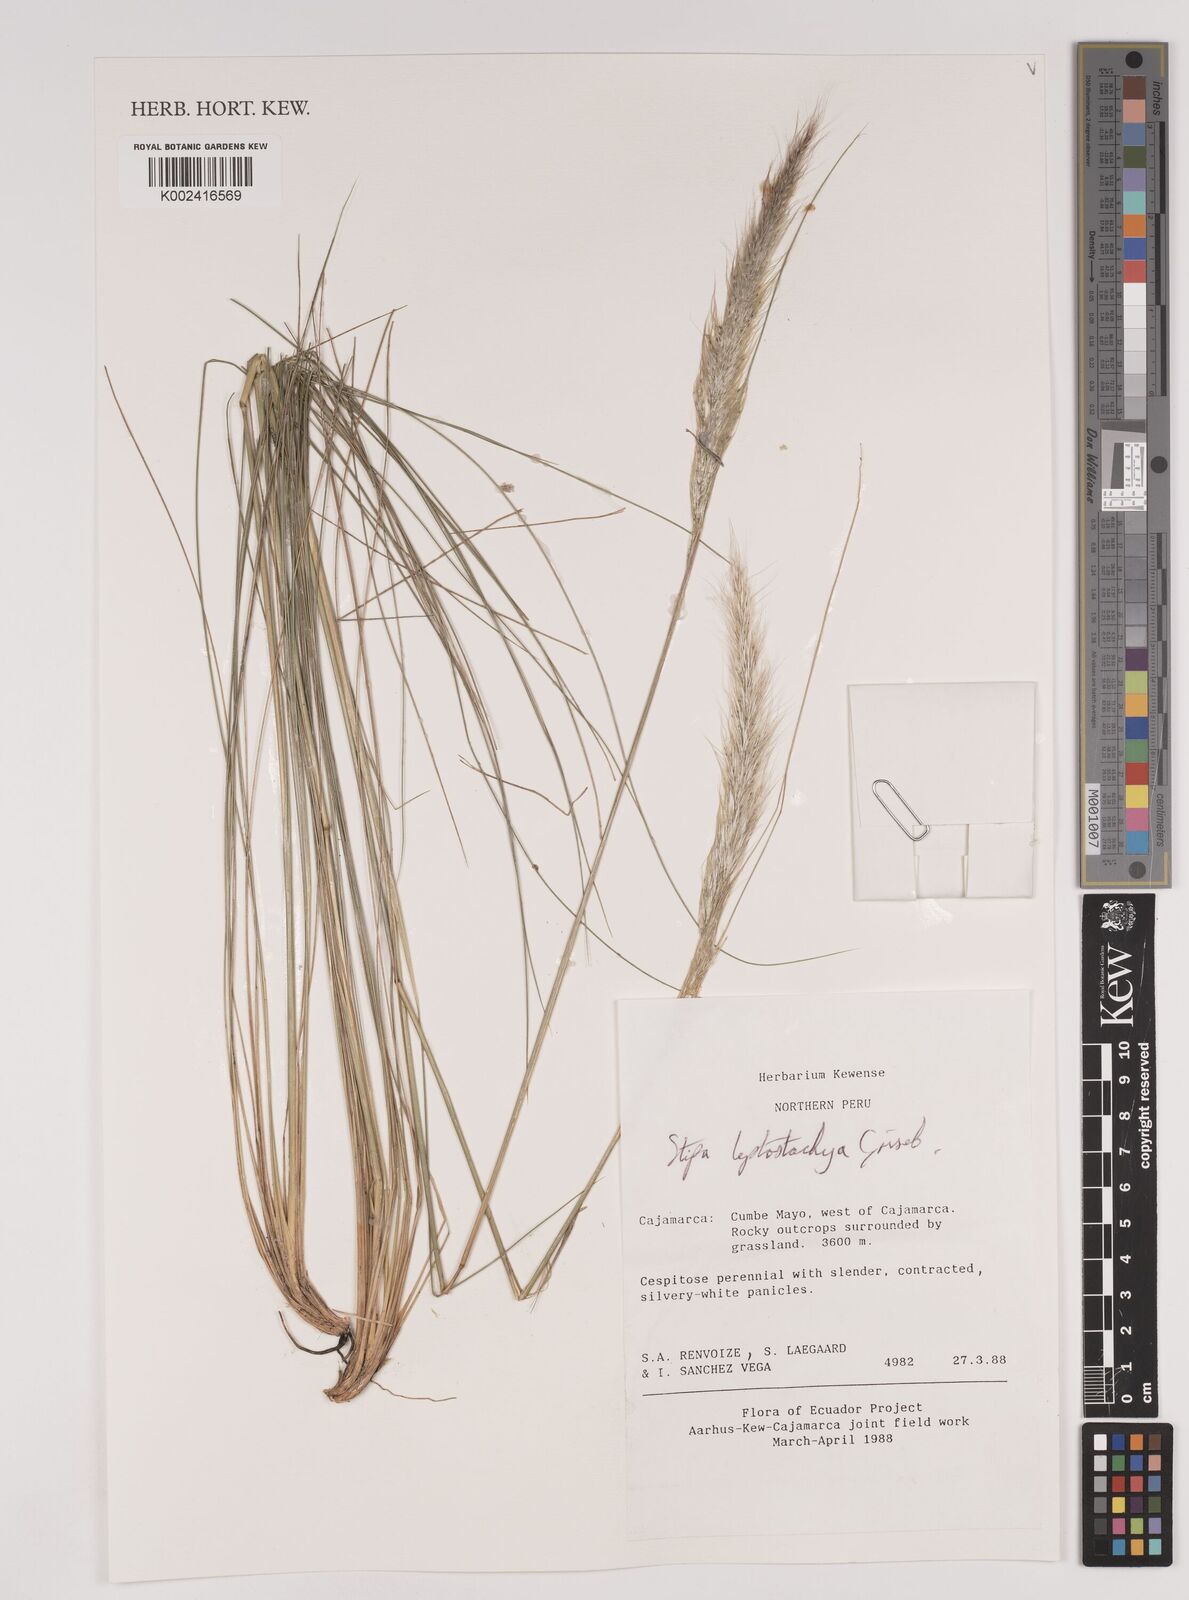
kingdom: Plantae
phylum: Tracheophyta
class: Liliopsida
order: Poales
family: Poaceae
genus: Jarava
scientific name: Jarava leptostachya
